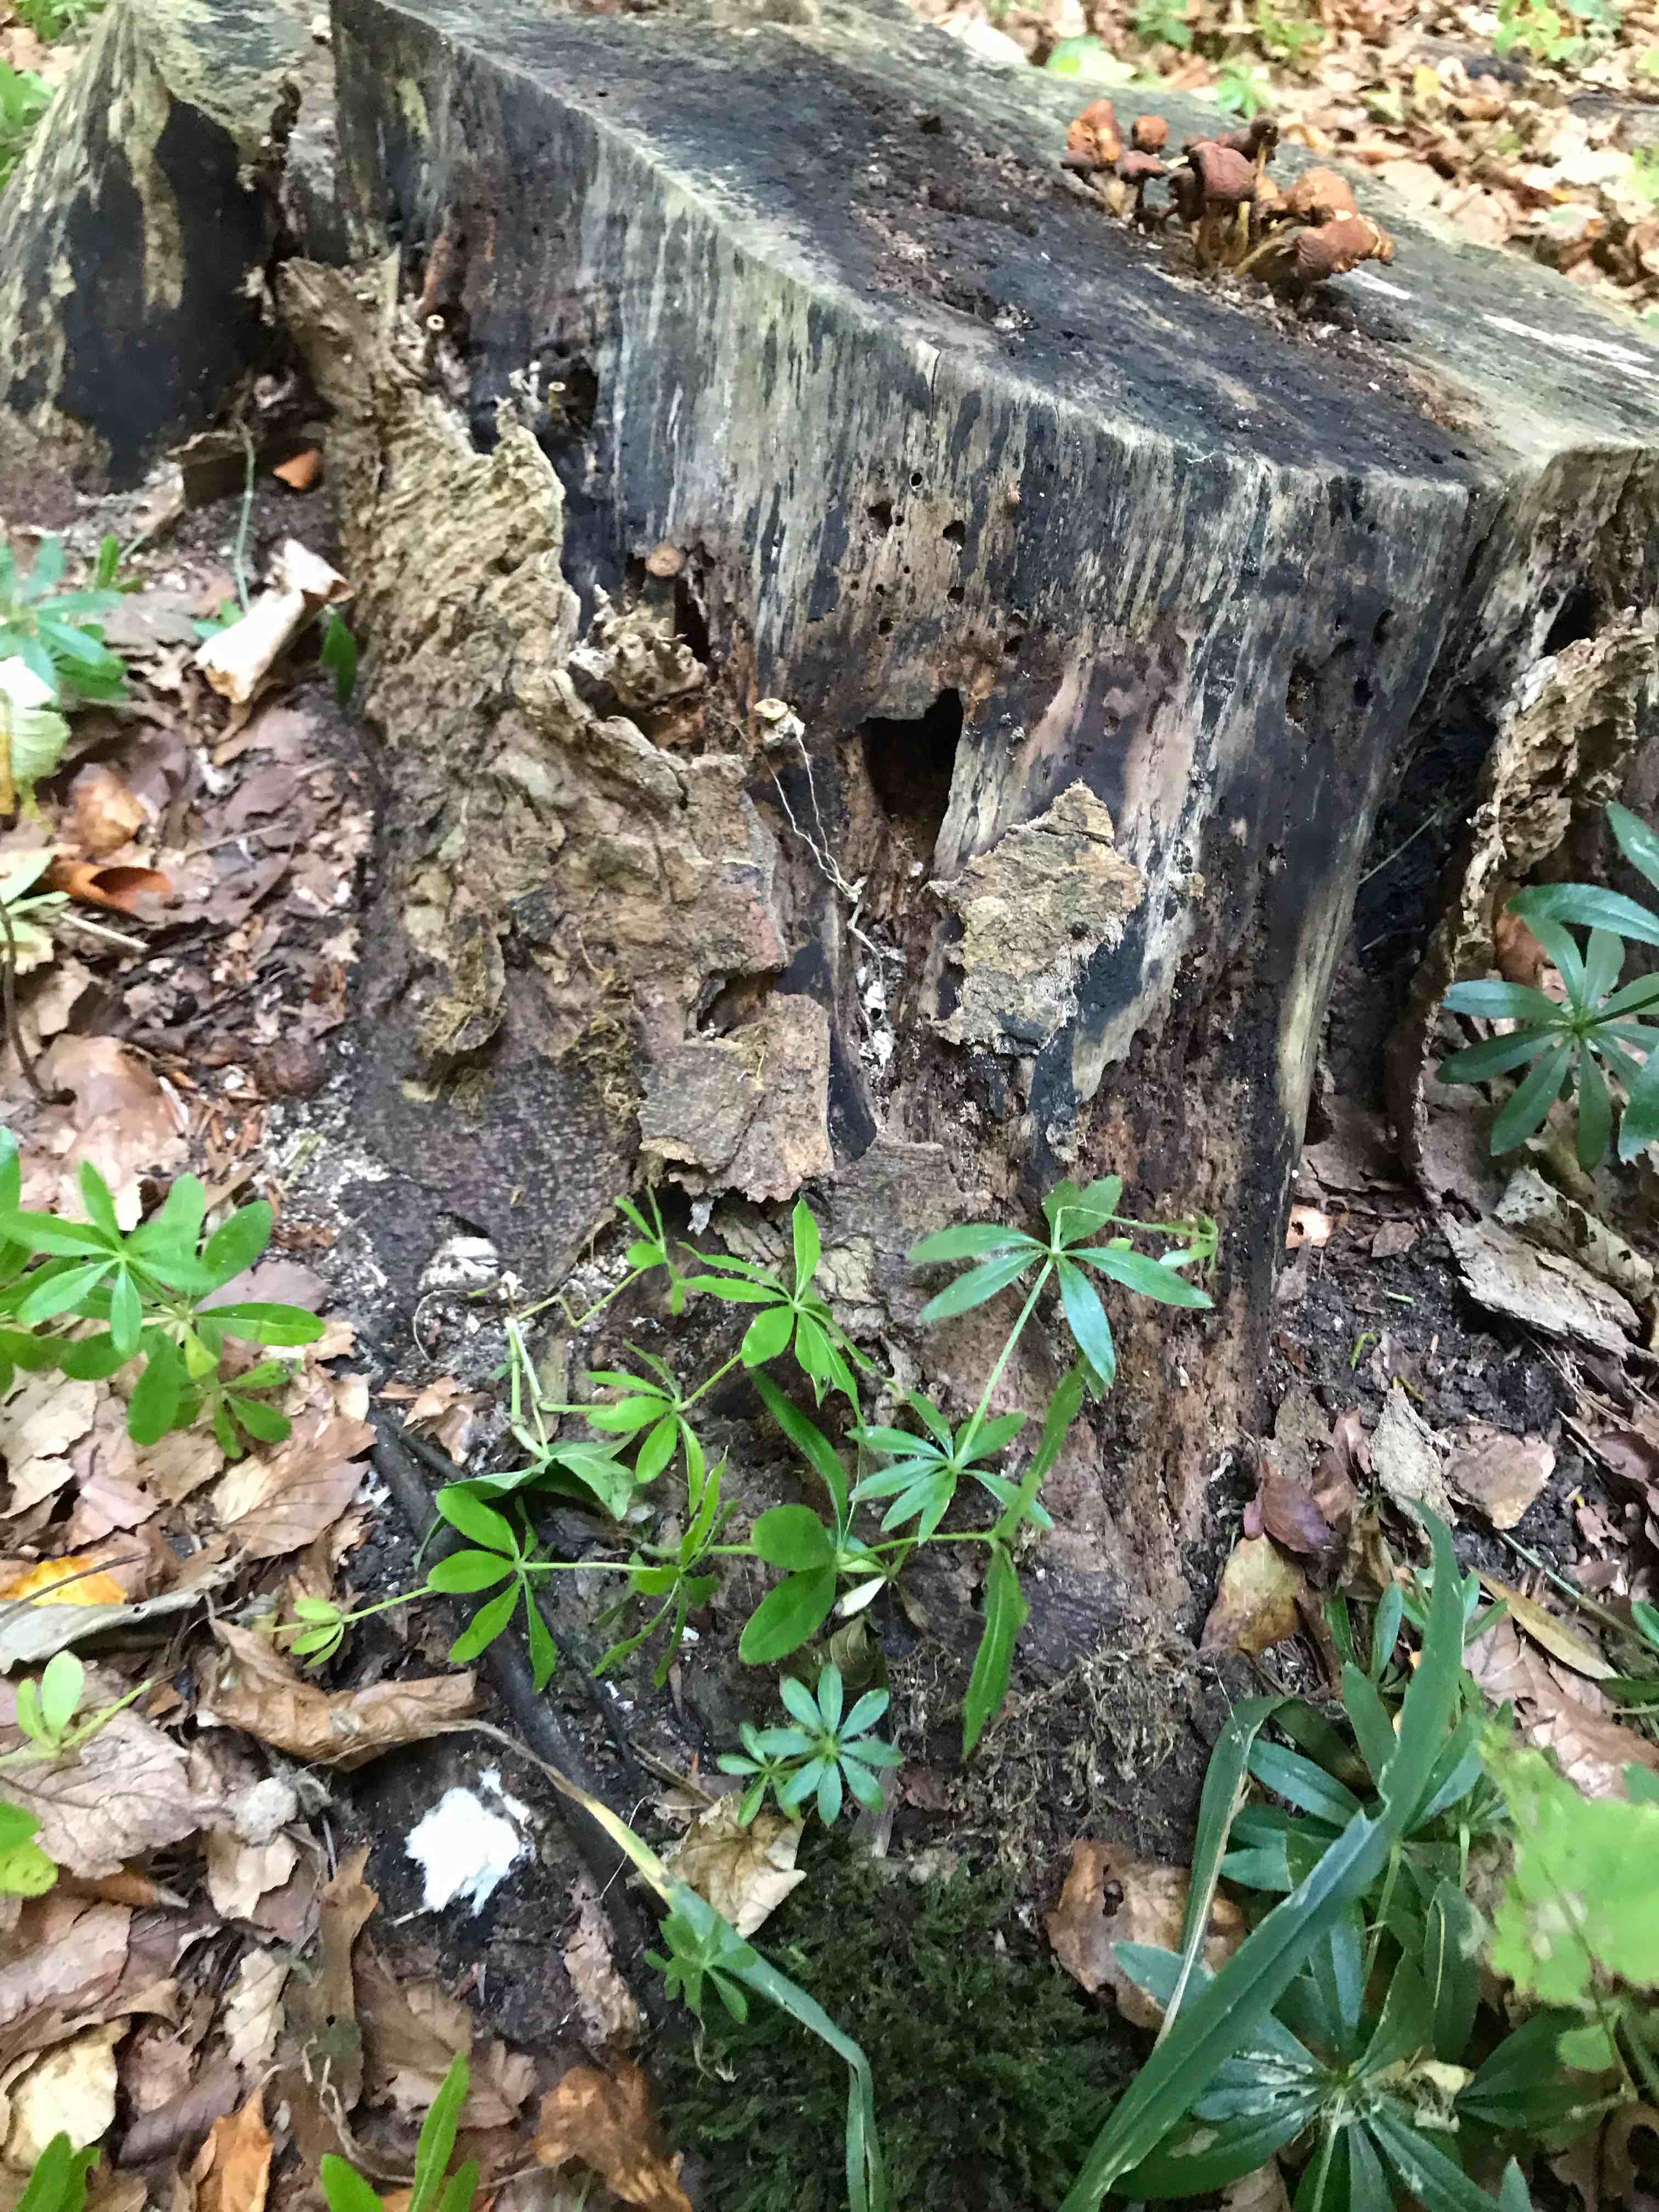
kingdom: Fungi
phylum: Basidiomycota
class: Agaricomycetes
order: Agaricales
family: Pluteaceae
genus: Pluteus
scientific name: Pluteus cervinus
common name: sodfarvet skærmhat
